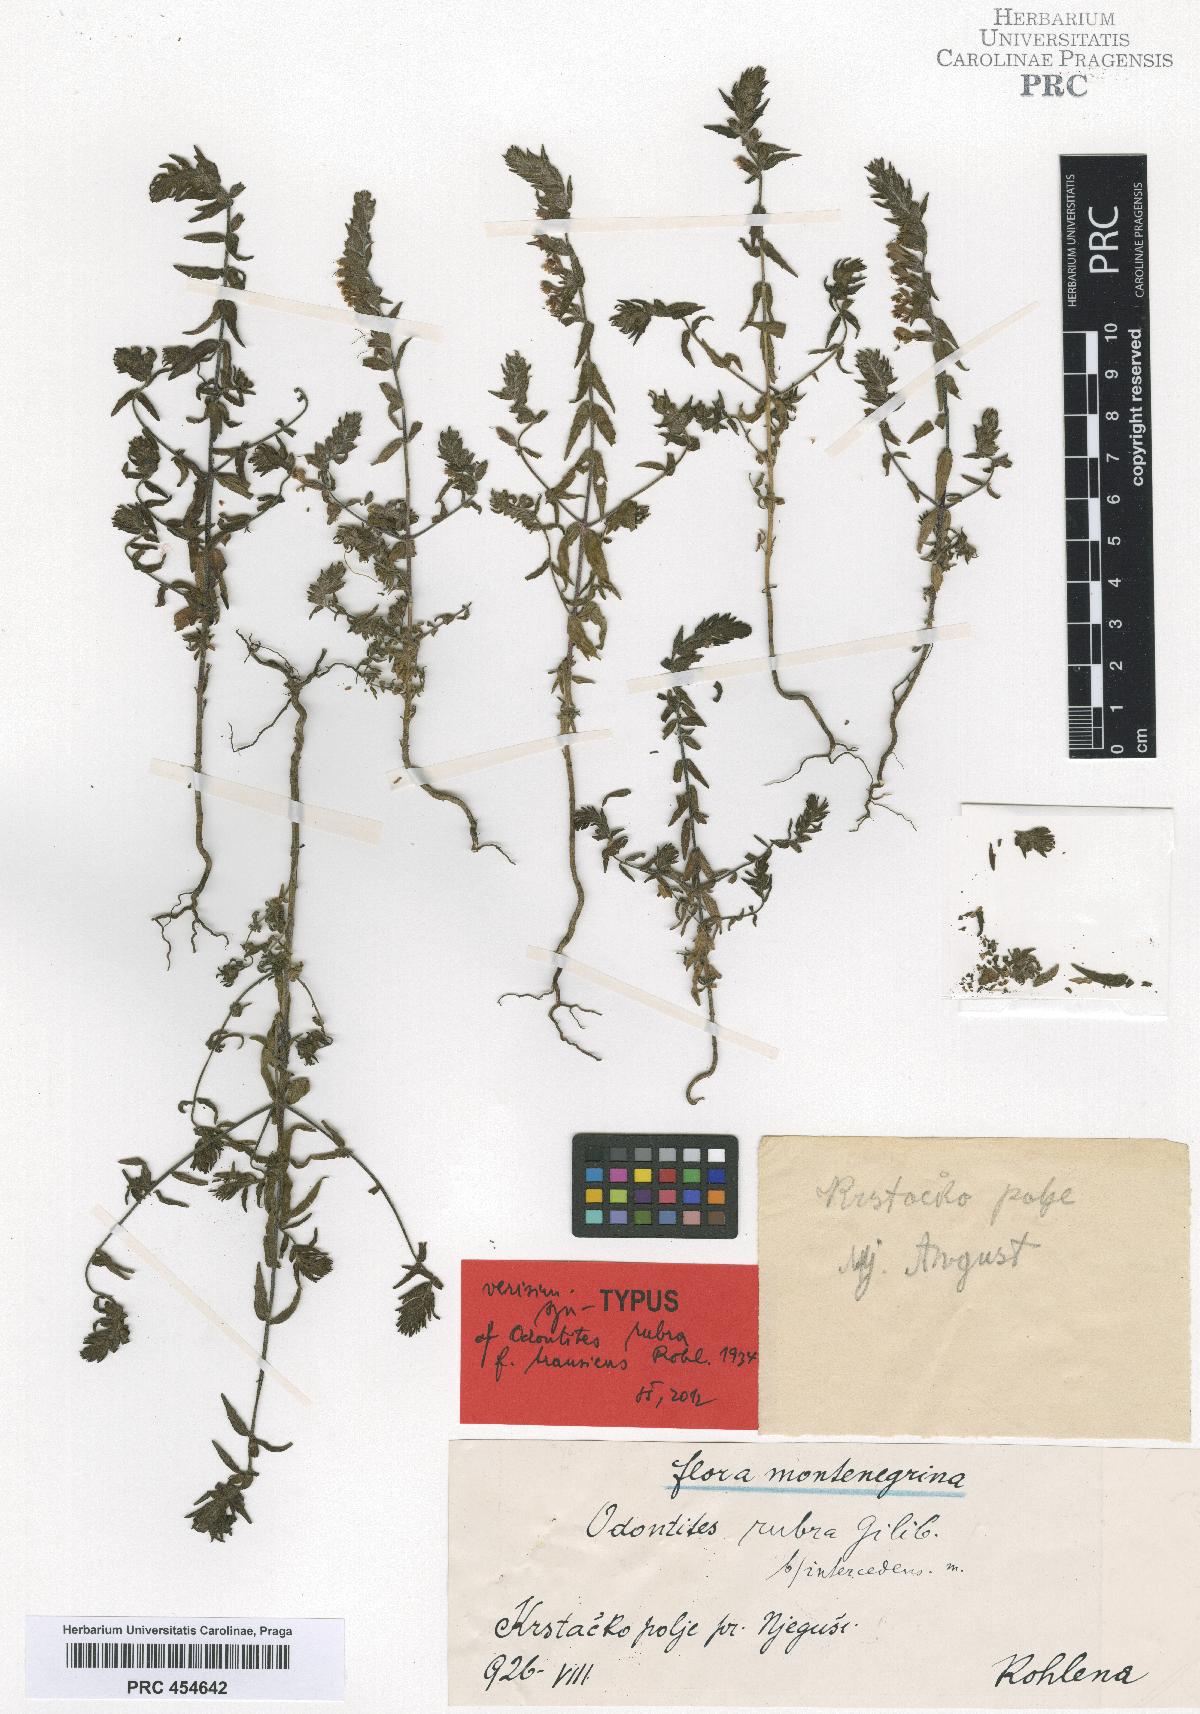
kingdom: Plantae
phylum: Tracheophyta
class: Magnoliopsida
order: Lamiales
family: Orobanchaceae
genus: Odontites
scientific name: Odontites vulgaris
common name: Broomrape
